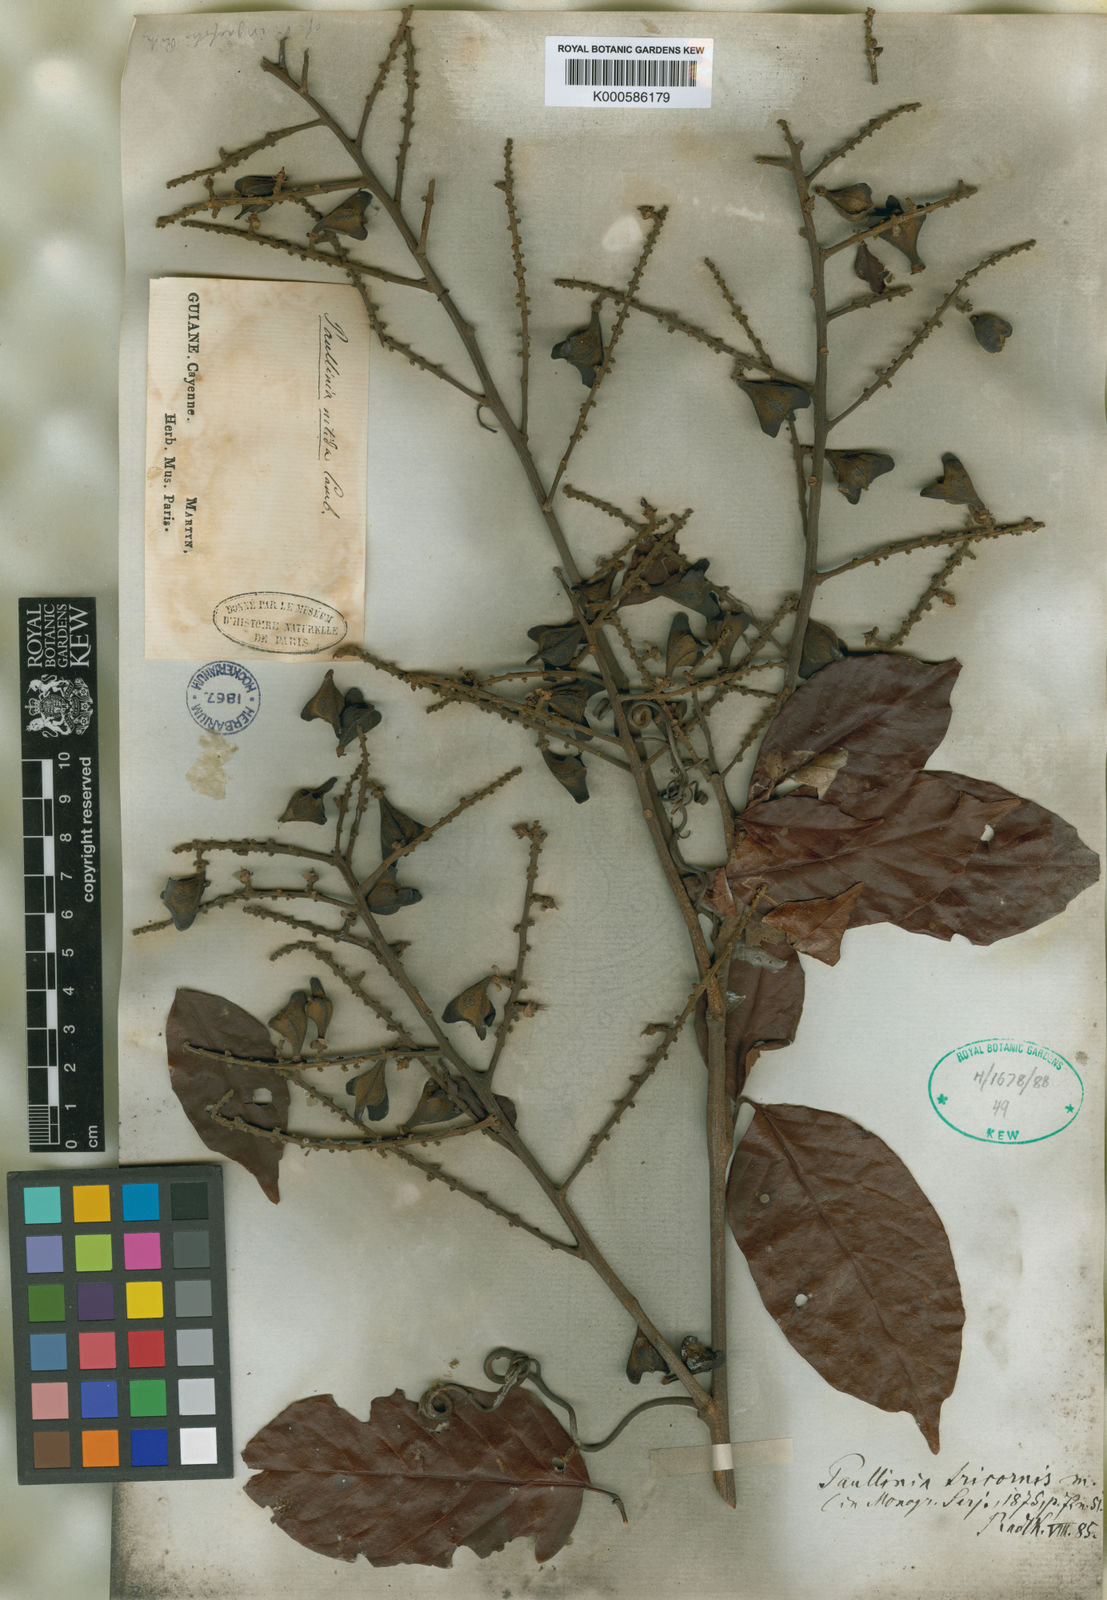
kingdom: Plantae
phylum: Tracheophyta
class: Magnoliopsida
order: Sapindales
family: Sapindaceae
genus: Paullinia
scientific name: Paullinia tricornis
